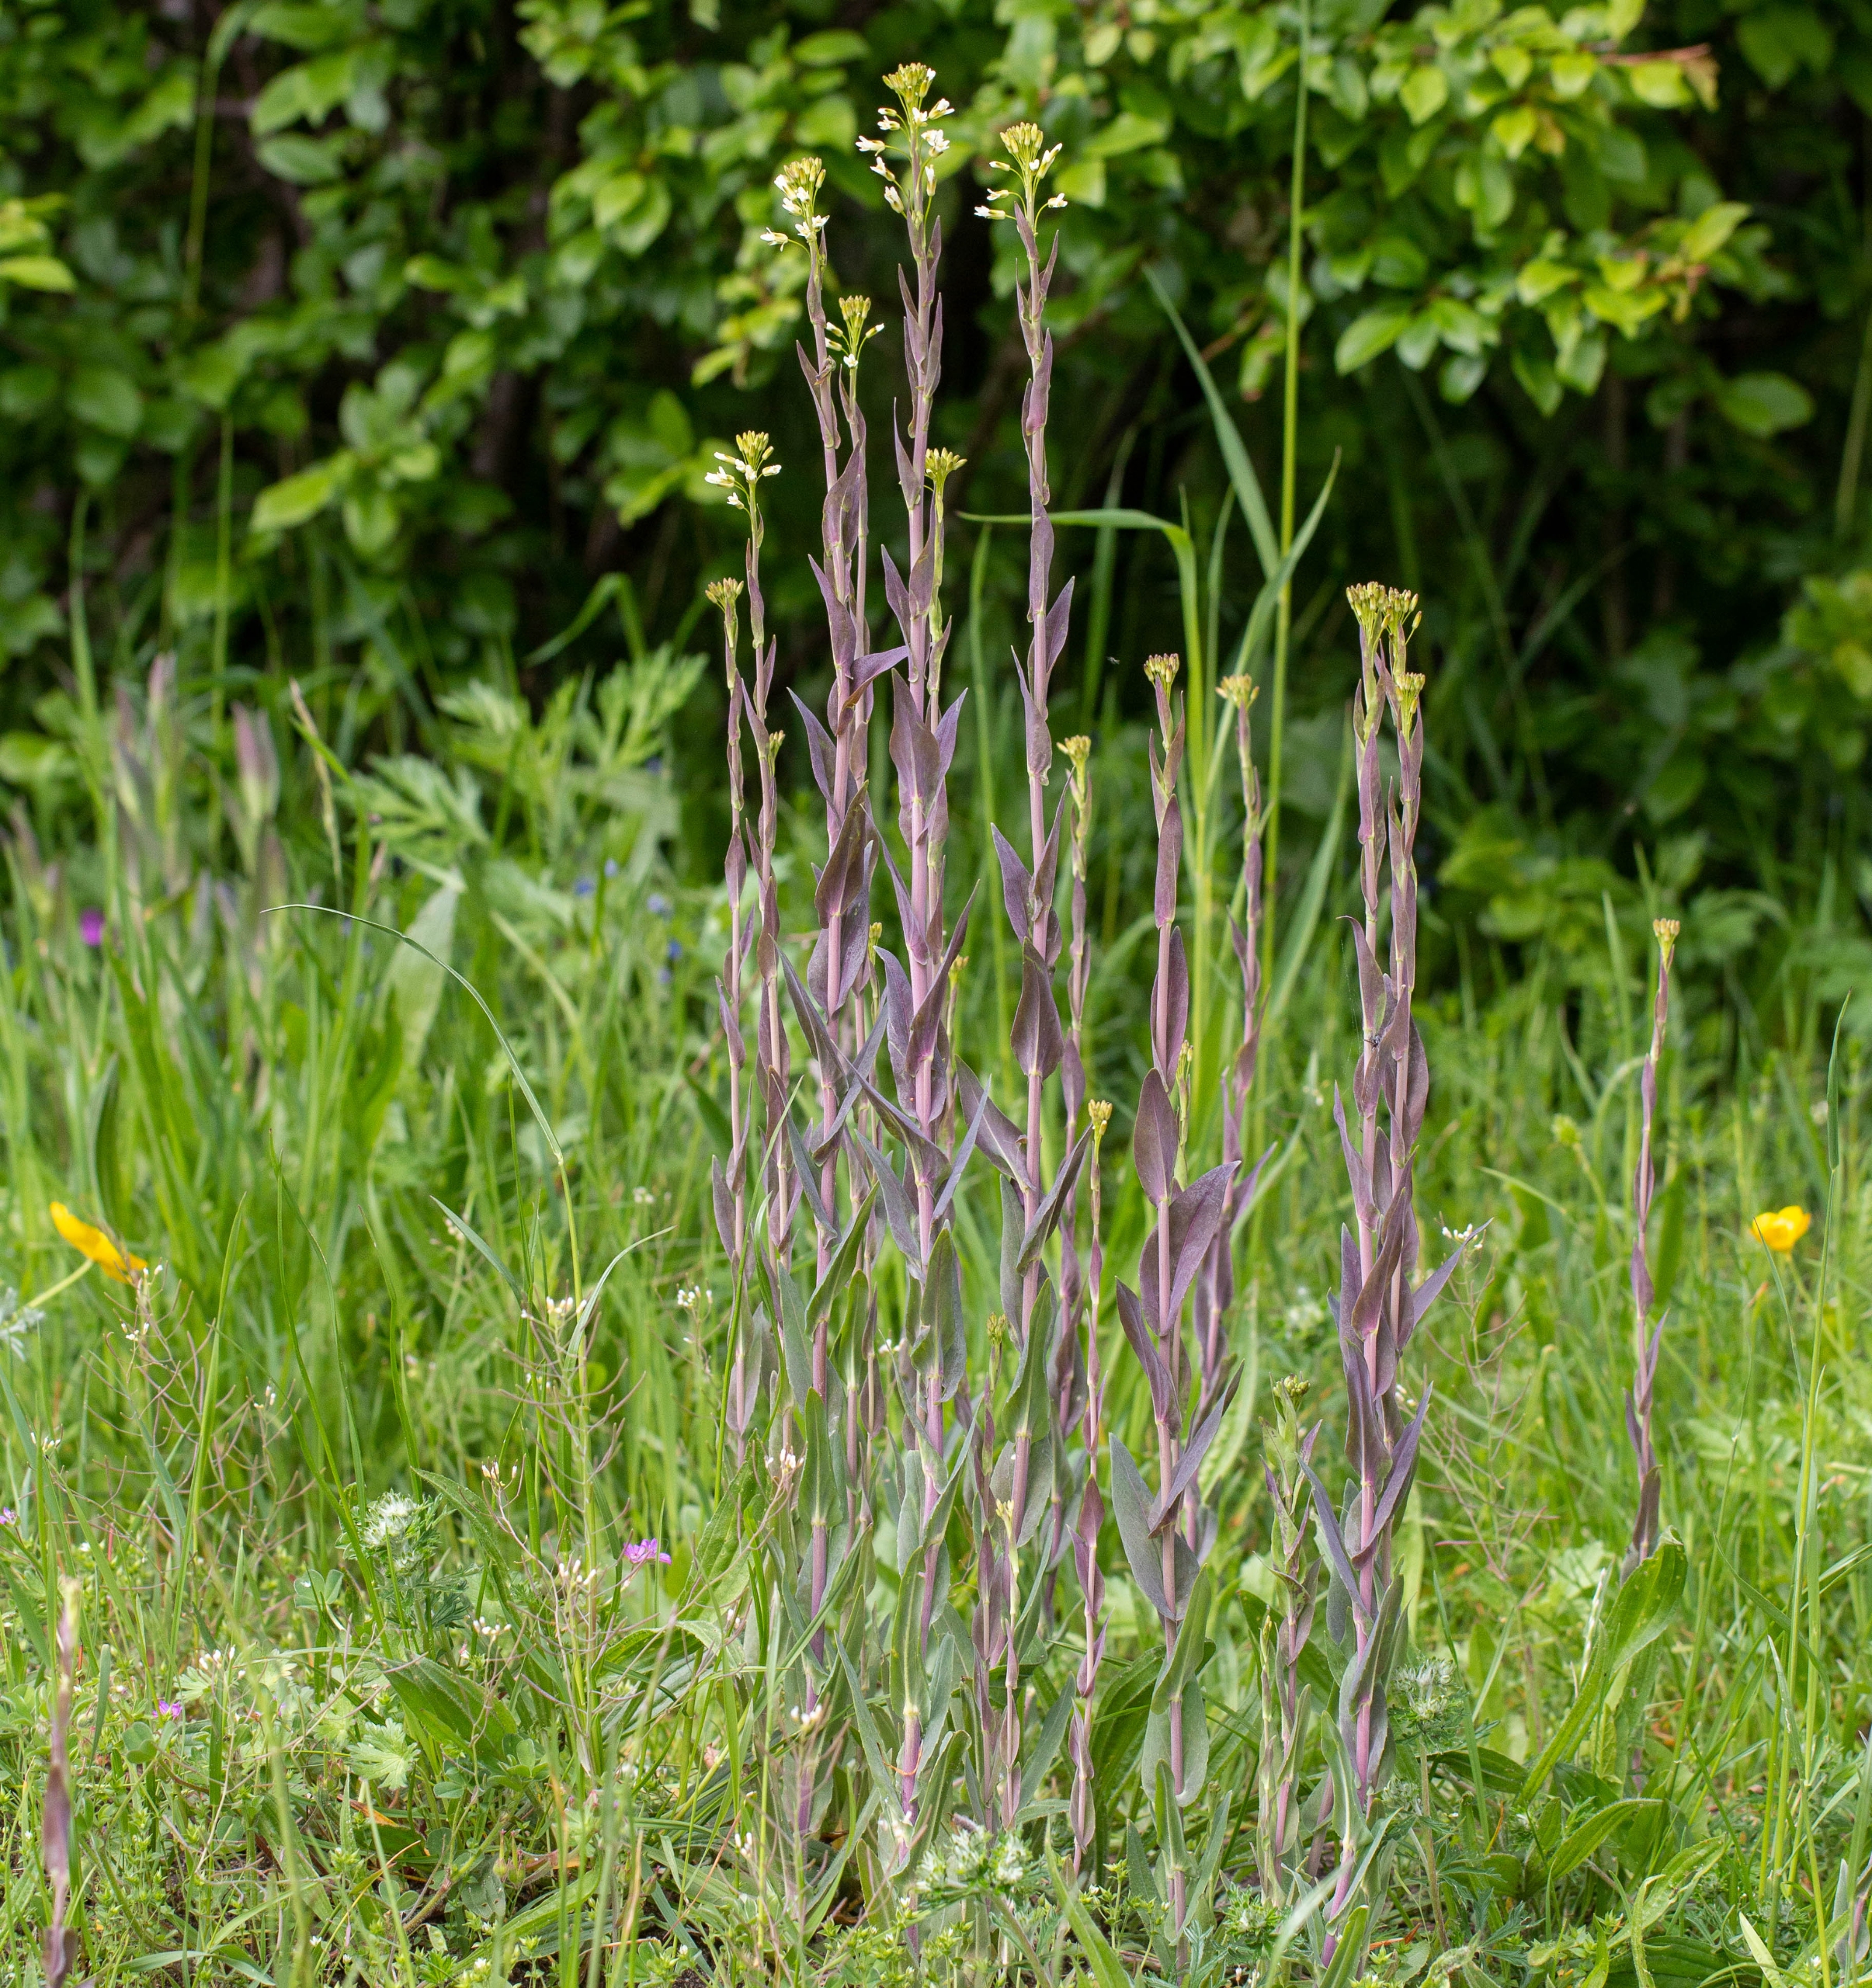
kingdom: Plantae
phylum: Tracheophyta
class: Magnoliopsida
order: Brassicales
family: Brassicaceae
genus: Turritis
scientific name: Turritis glabra
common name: Tårnurt
